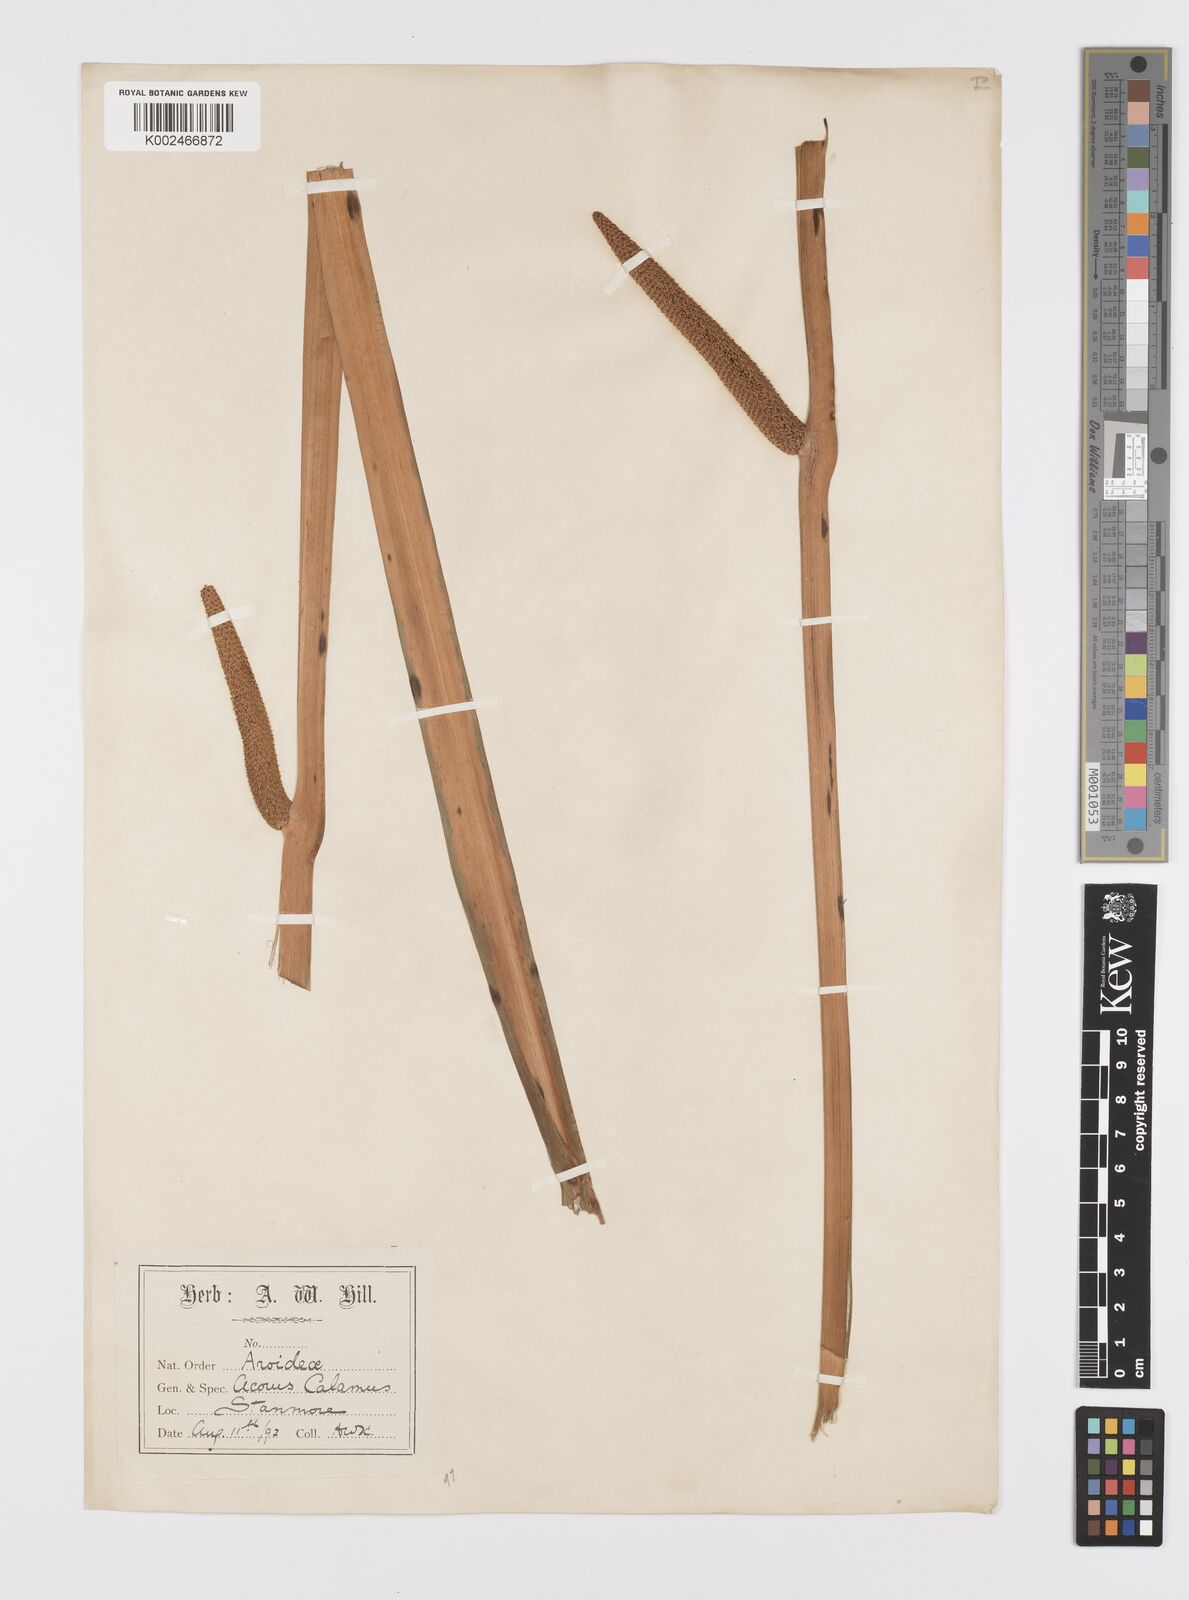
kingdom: Plantae
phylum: Tracheophyta
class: Liliopsida
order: Acorales
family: Acoraceae
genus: Acorus
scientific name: Acorus calamus
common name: Sweet-flag
